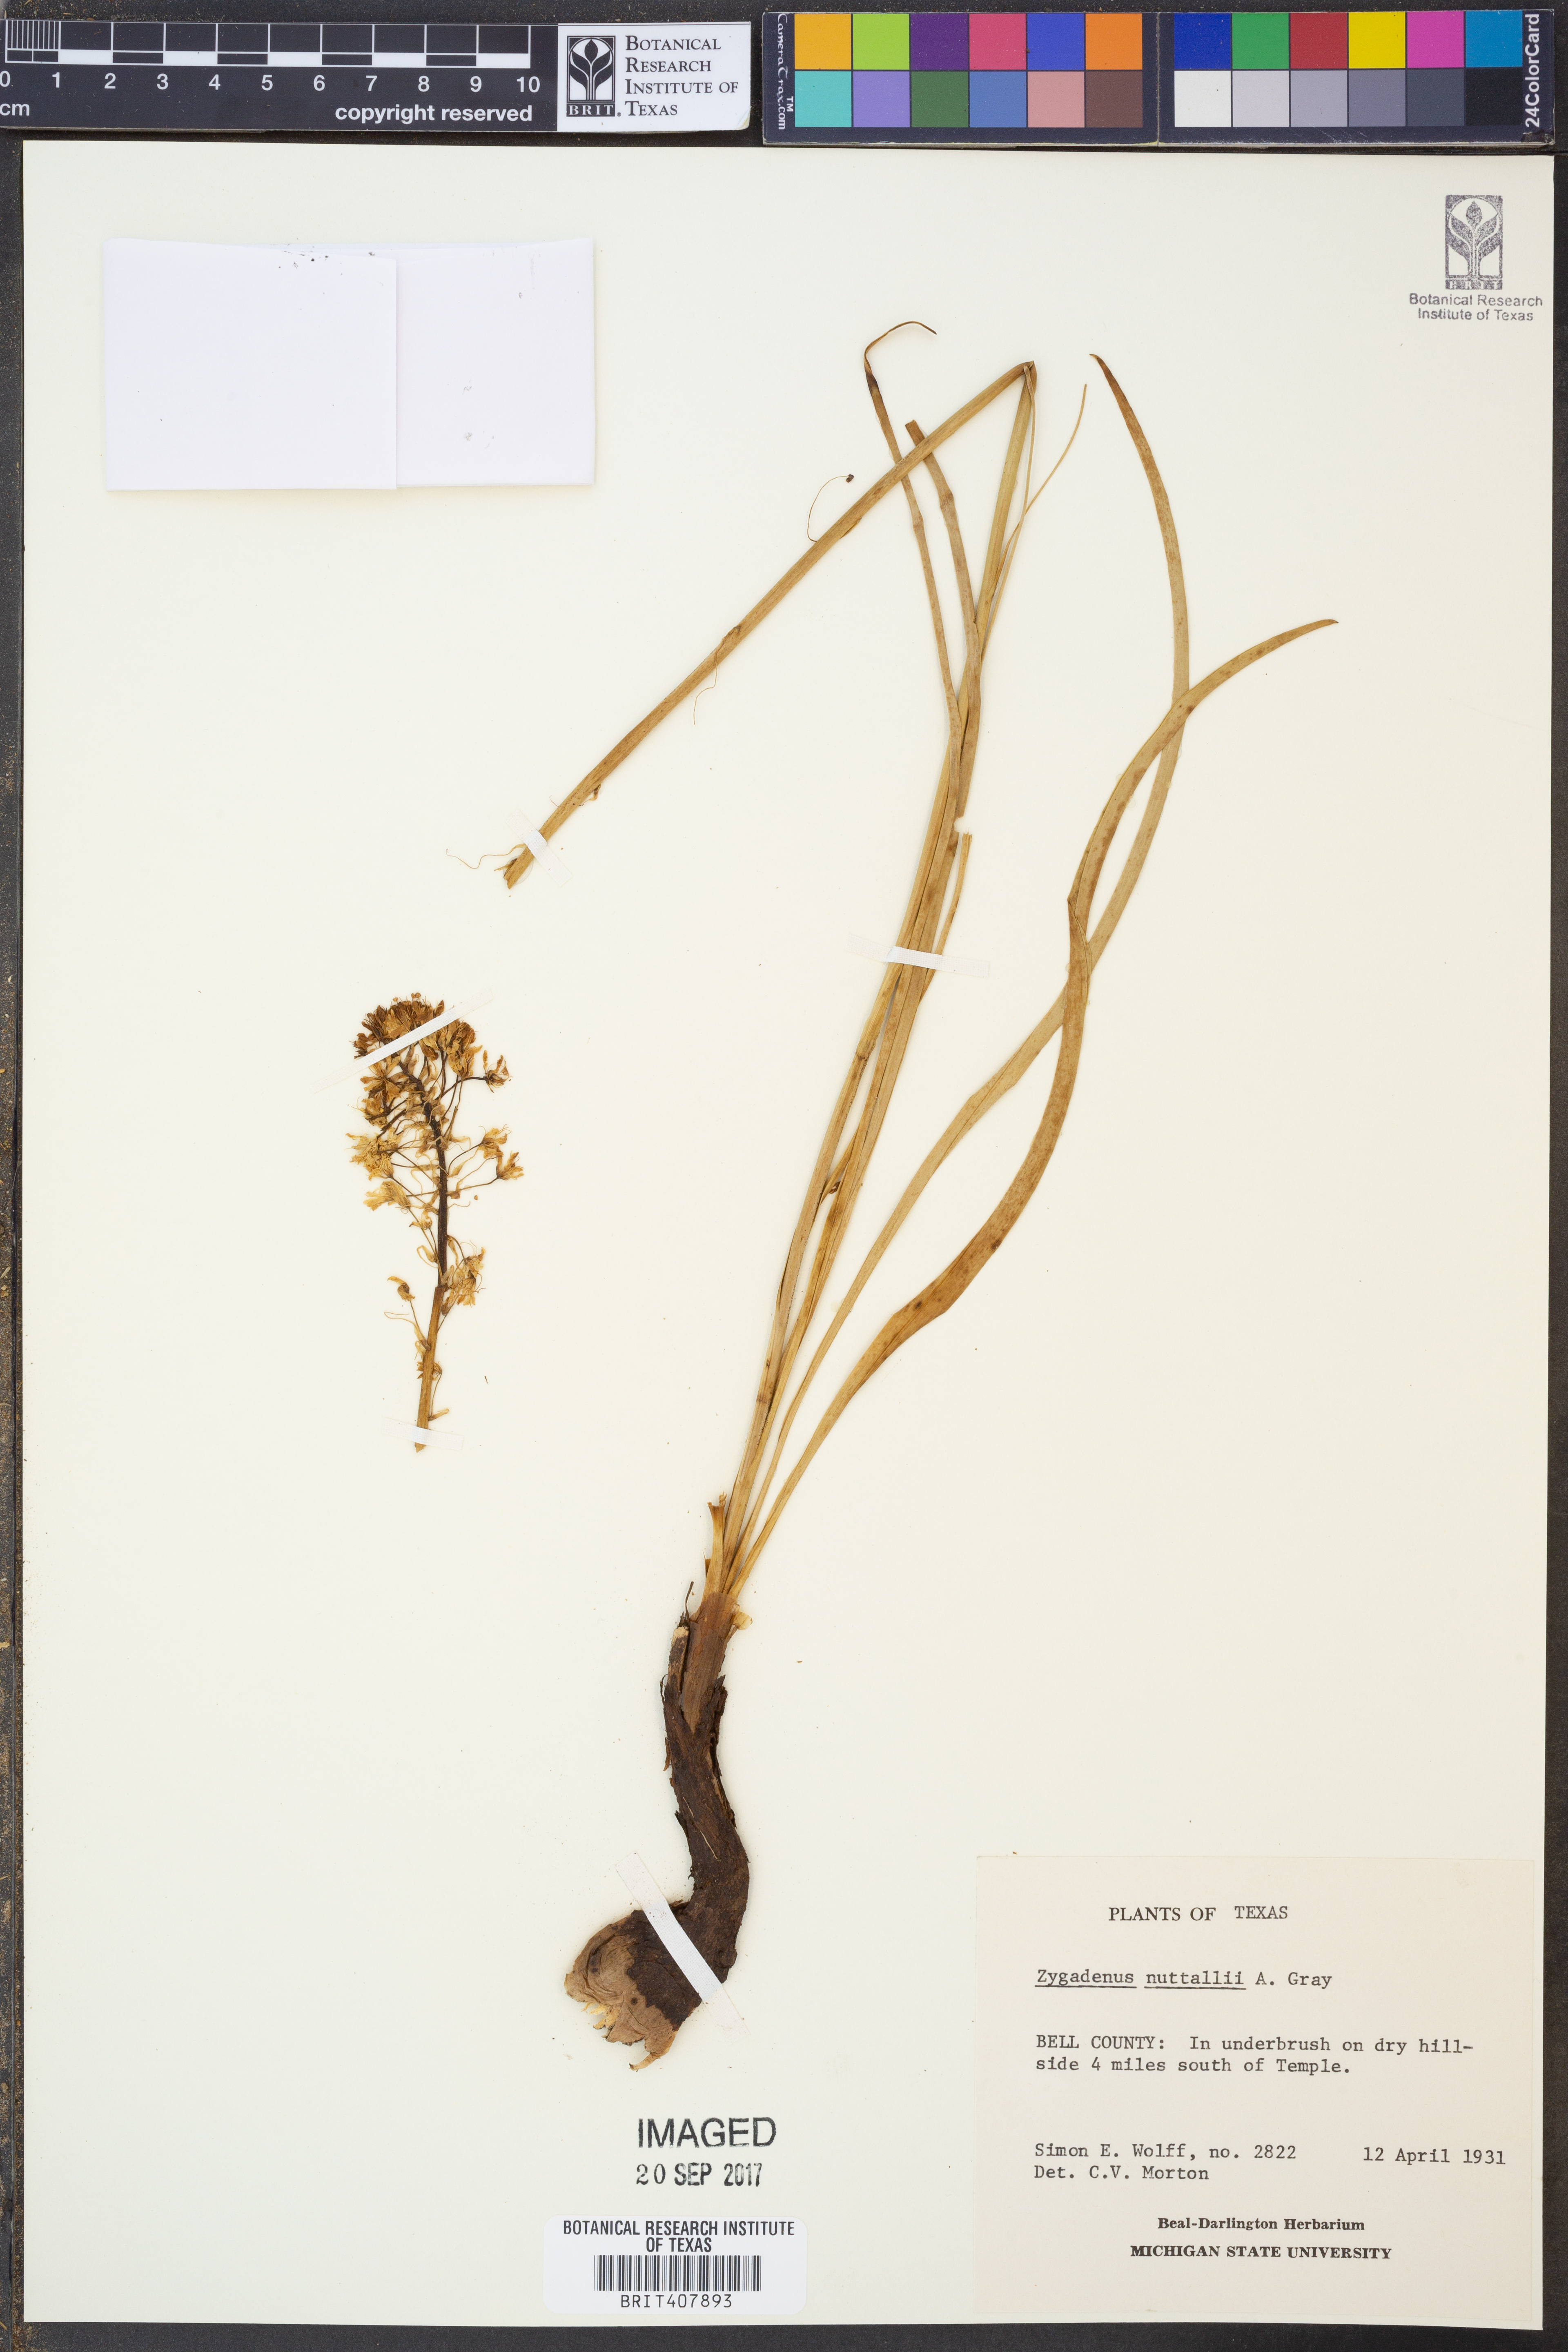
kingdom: Plantae
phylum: Tracheophyta
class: Liliopsida
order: Liliales
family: Melanthiaceae
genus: Toxicoscordion
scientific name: Toxicoscordion nuttallii
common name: Poison sego
